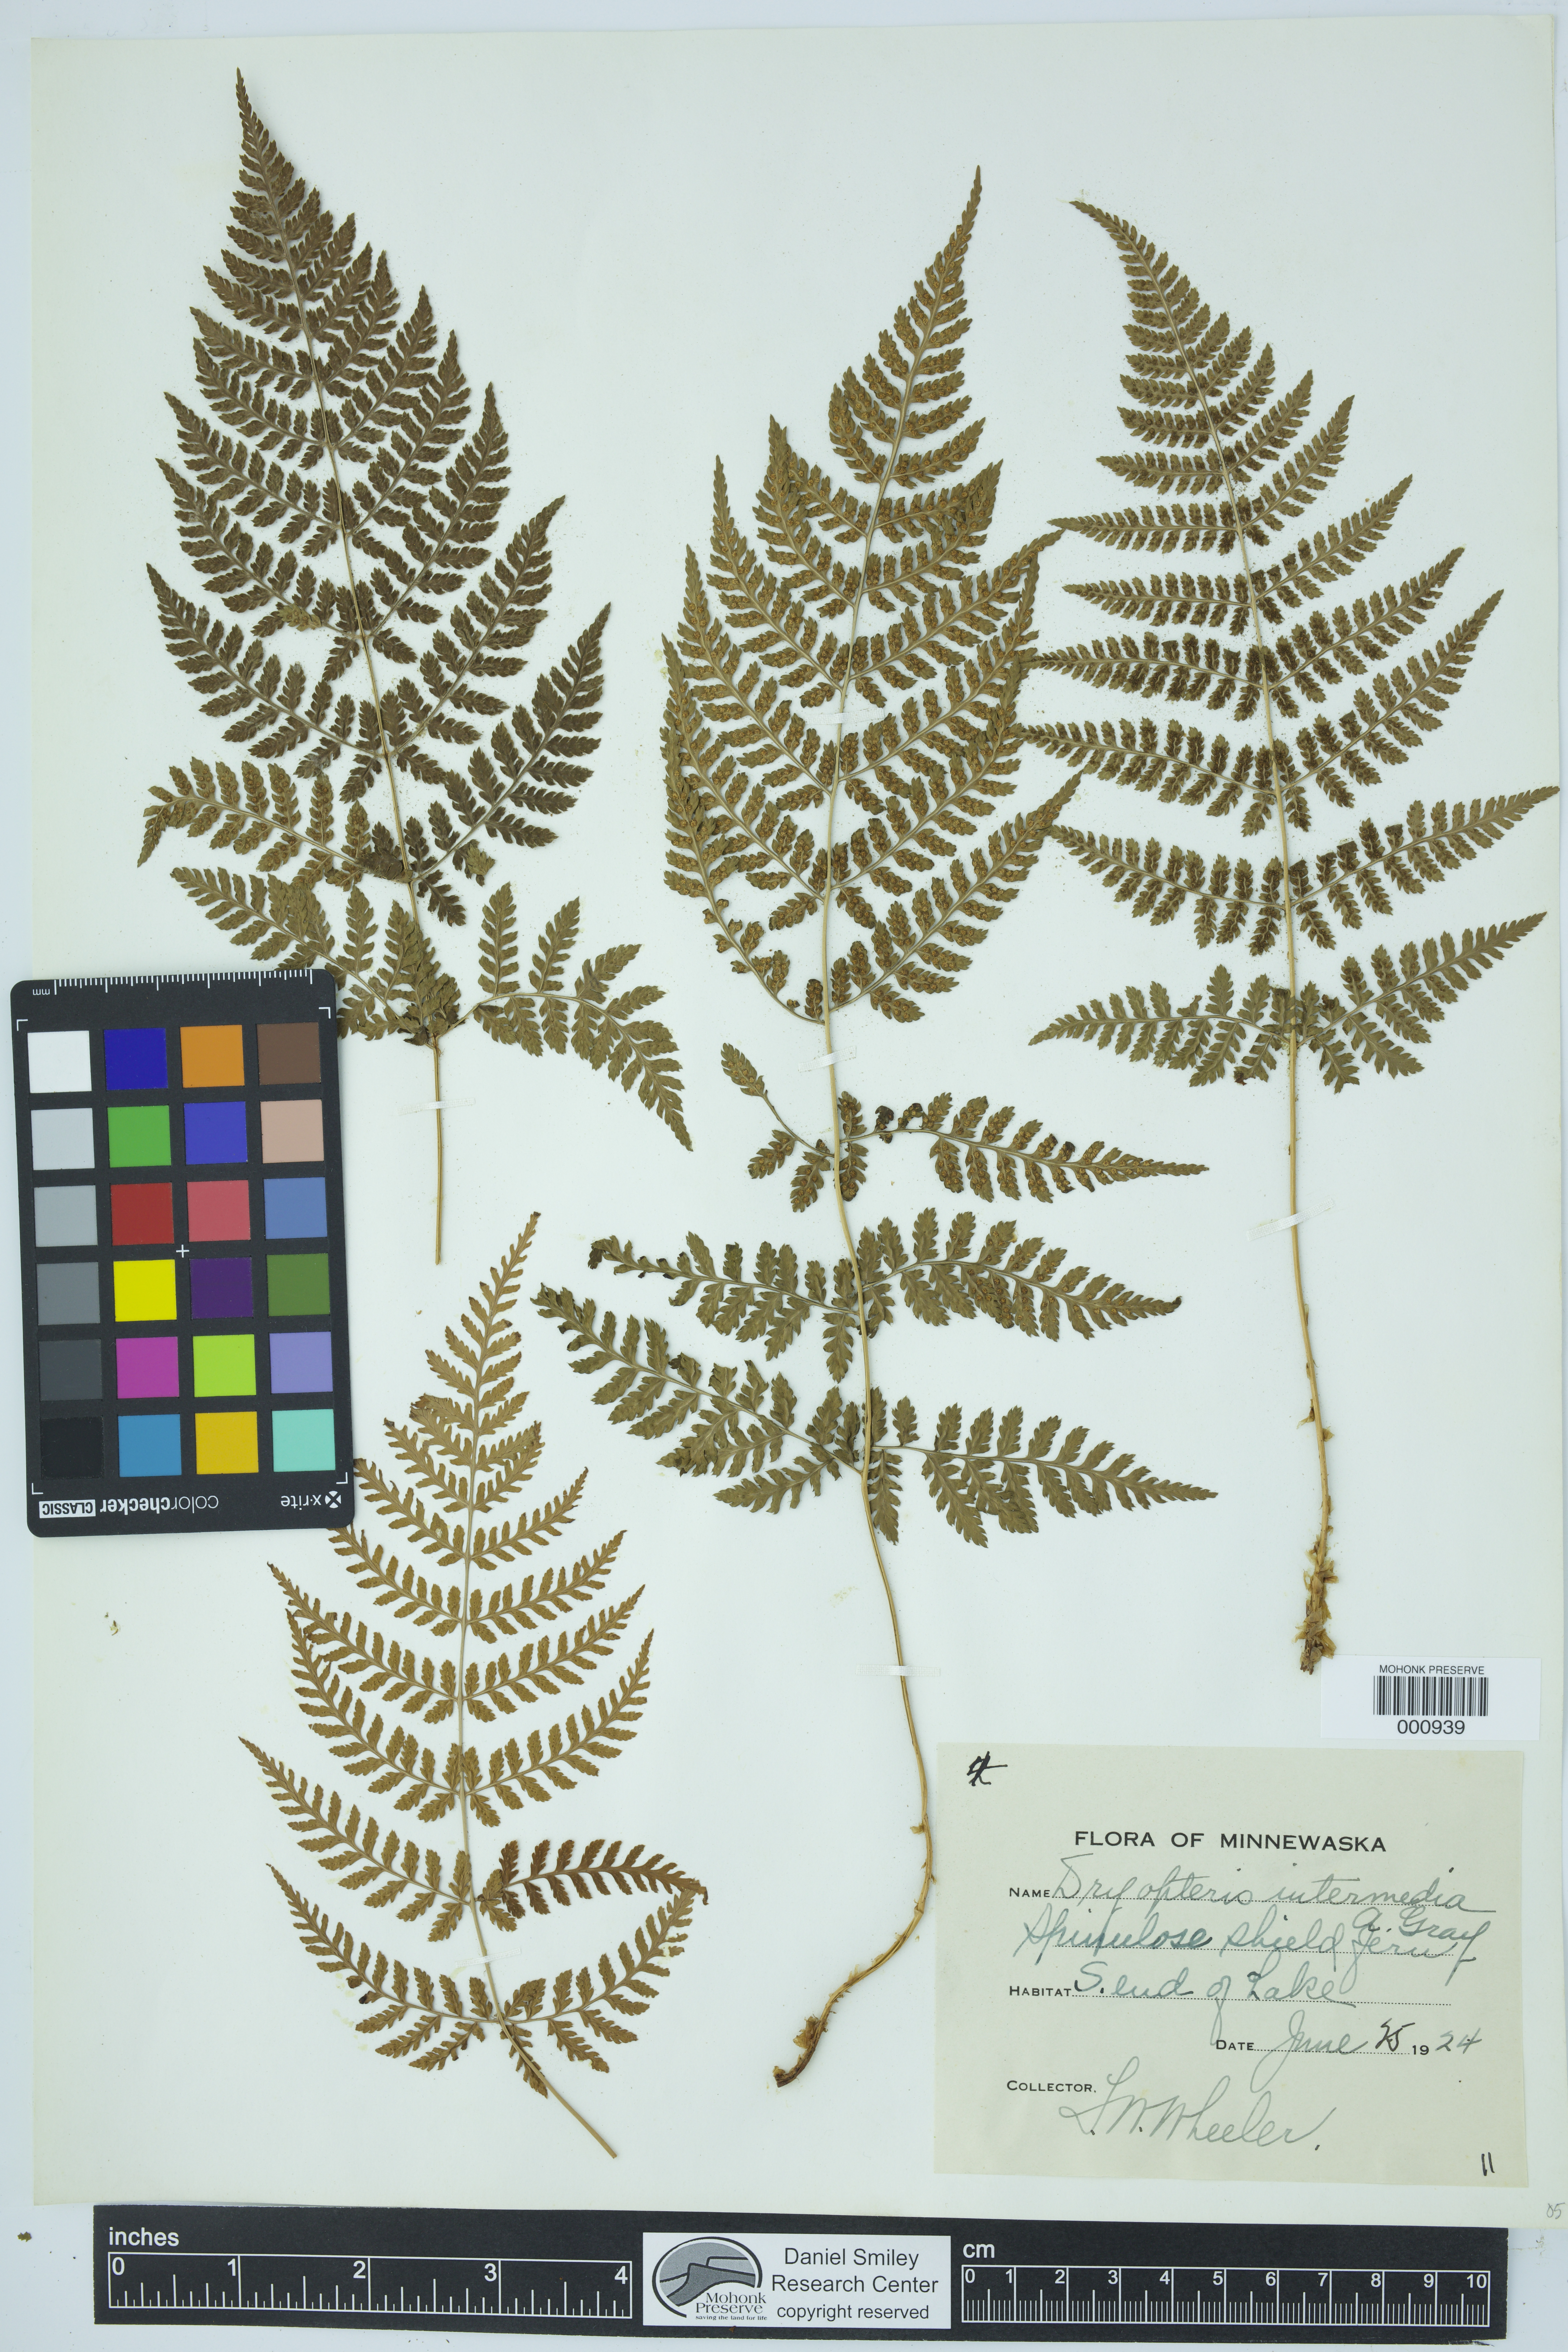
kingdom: Plantae
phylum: Tracheophyta
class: Polypodiopsida
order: Polypodiales
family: Dryopteridaceae
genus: Dryopteris
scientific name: Dryopteris intermedia
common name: Evergreen wood fern
